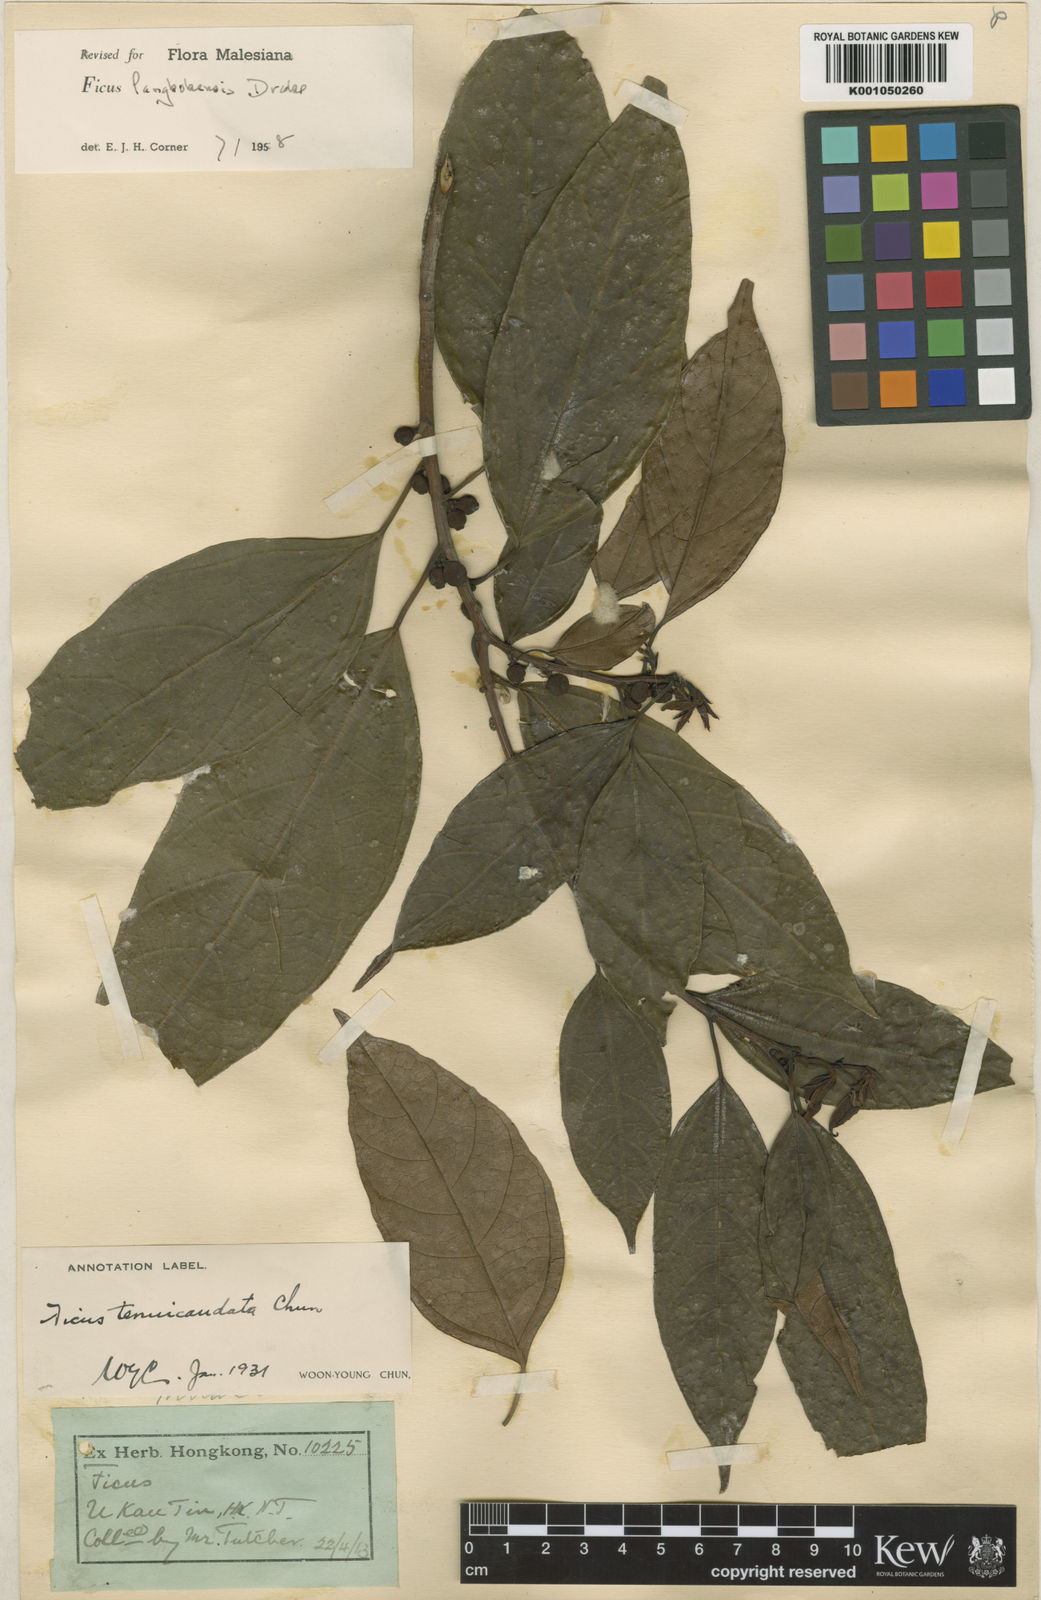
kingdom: Plantae
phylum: Tracheophyta
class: Magnoliopsida
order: Rosales
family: Moraceae
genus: Ficus
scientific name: Ficus langkokensis
